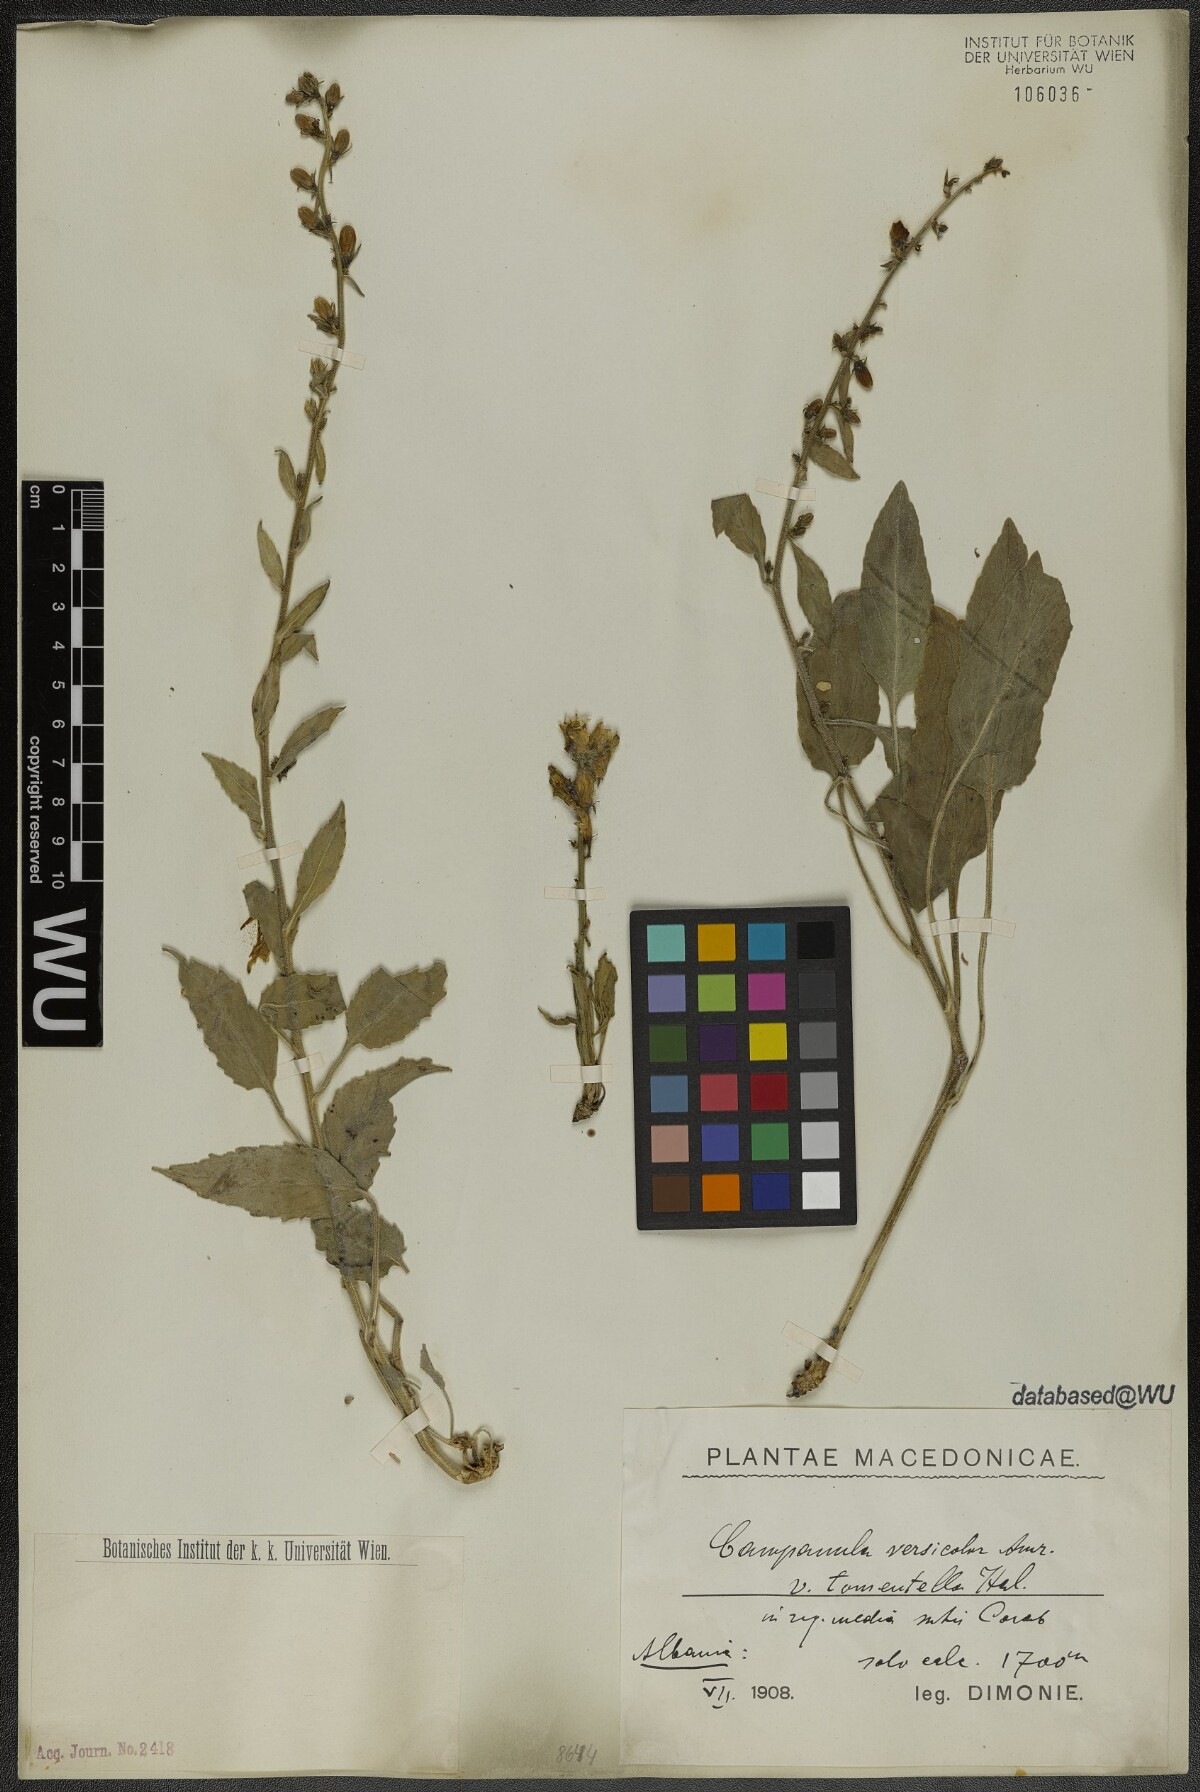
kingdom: Plantae
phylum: Tracheophyta
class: Magnoliopsida
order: Asterales
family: Campanulaceae
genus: Campanula
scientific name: Campanula versicolor
